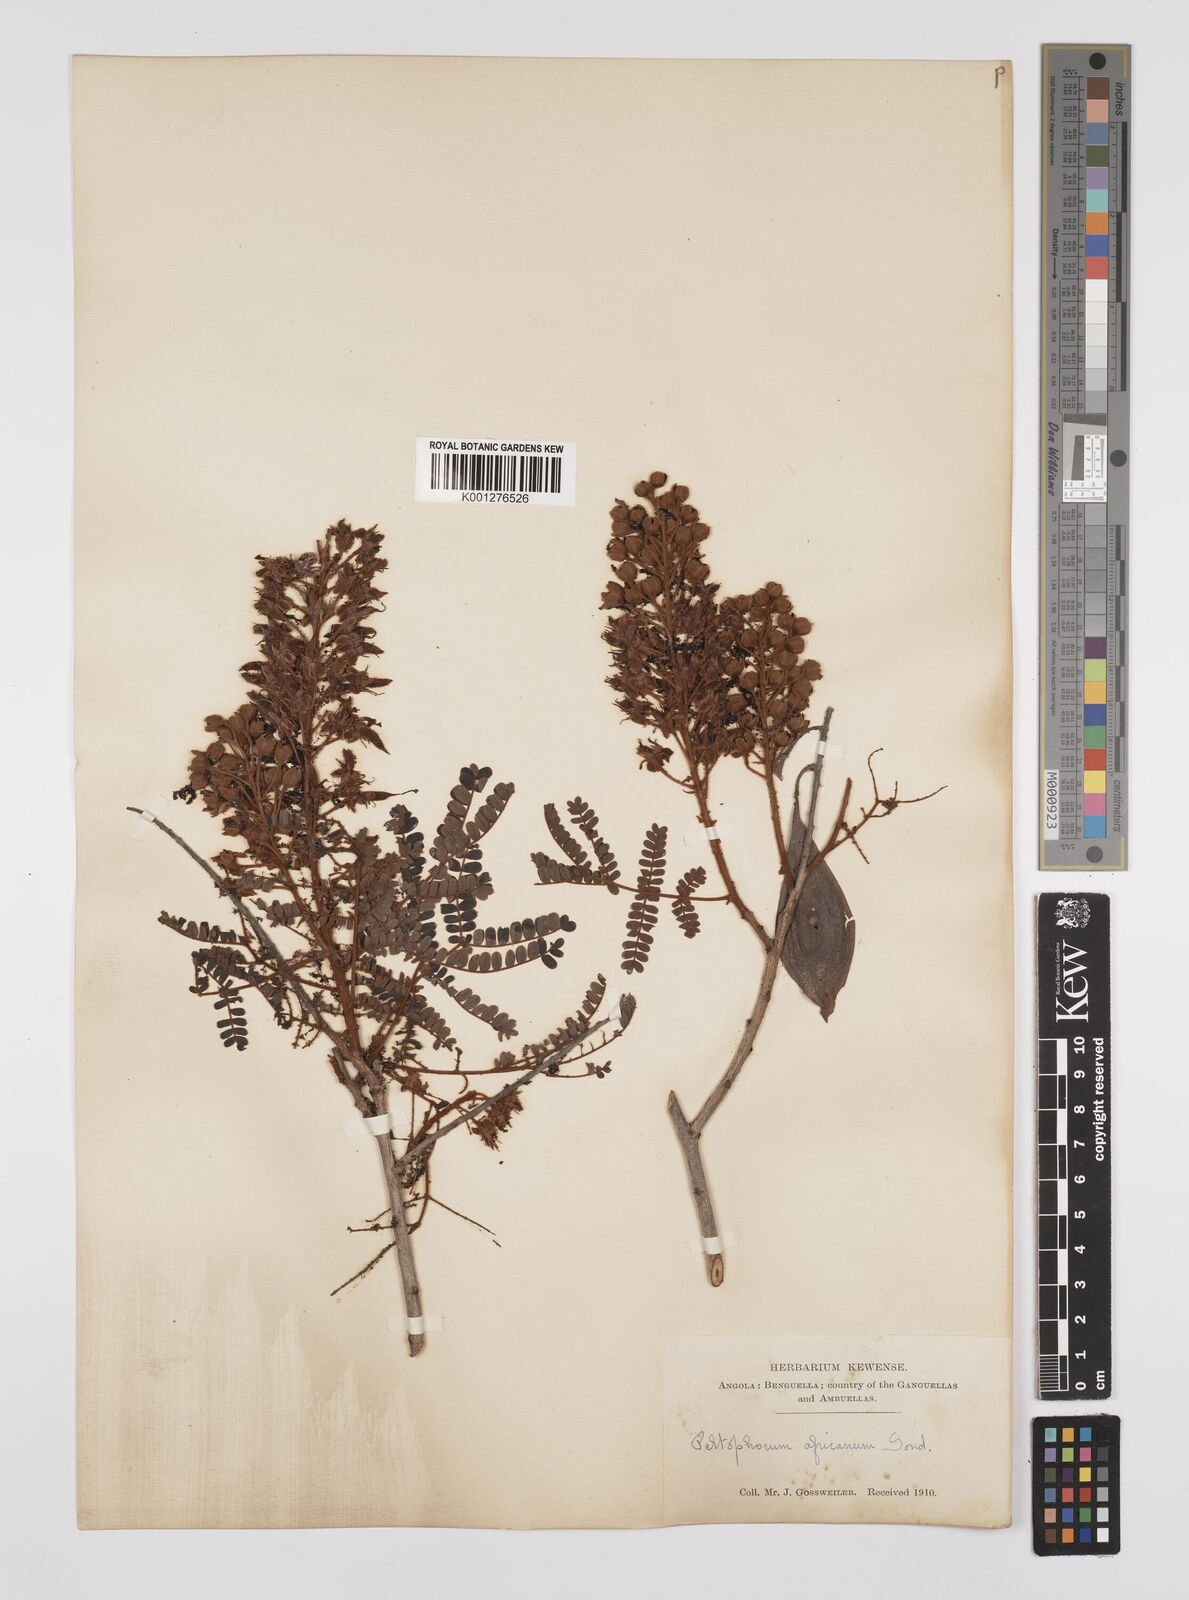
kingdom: Plantae
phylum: Tracheophyta
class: Magnoliopsida
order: Fabales
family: Fabaceae
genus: Peltophorum
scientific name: Peltophorum africanum
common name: African black wattle
